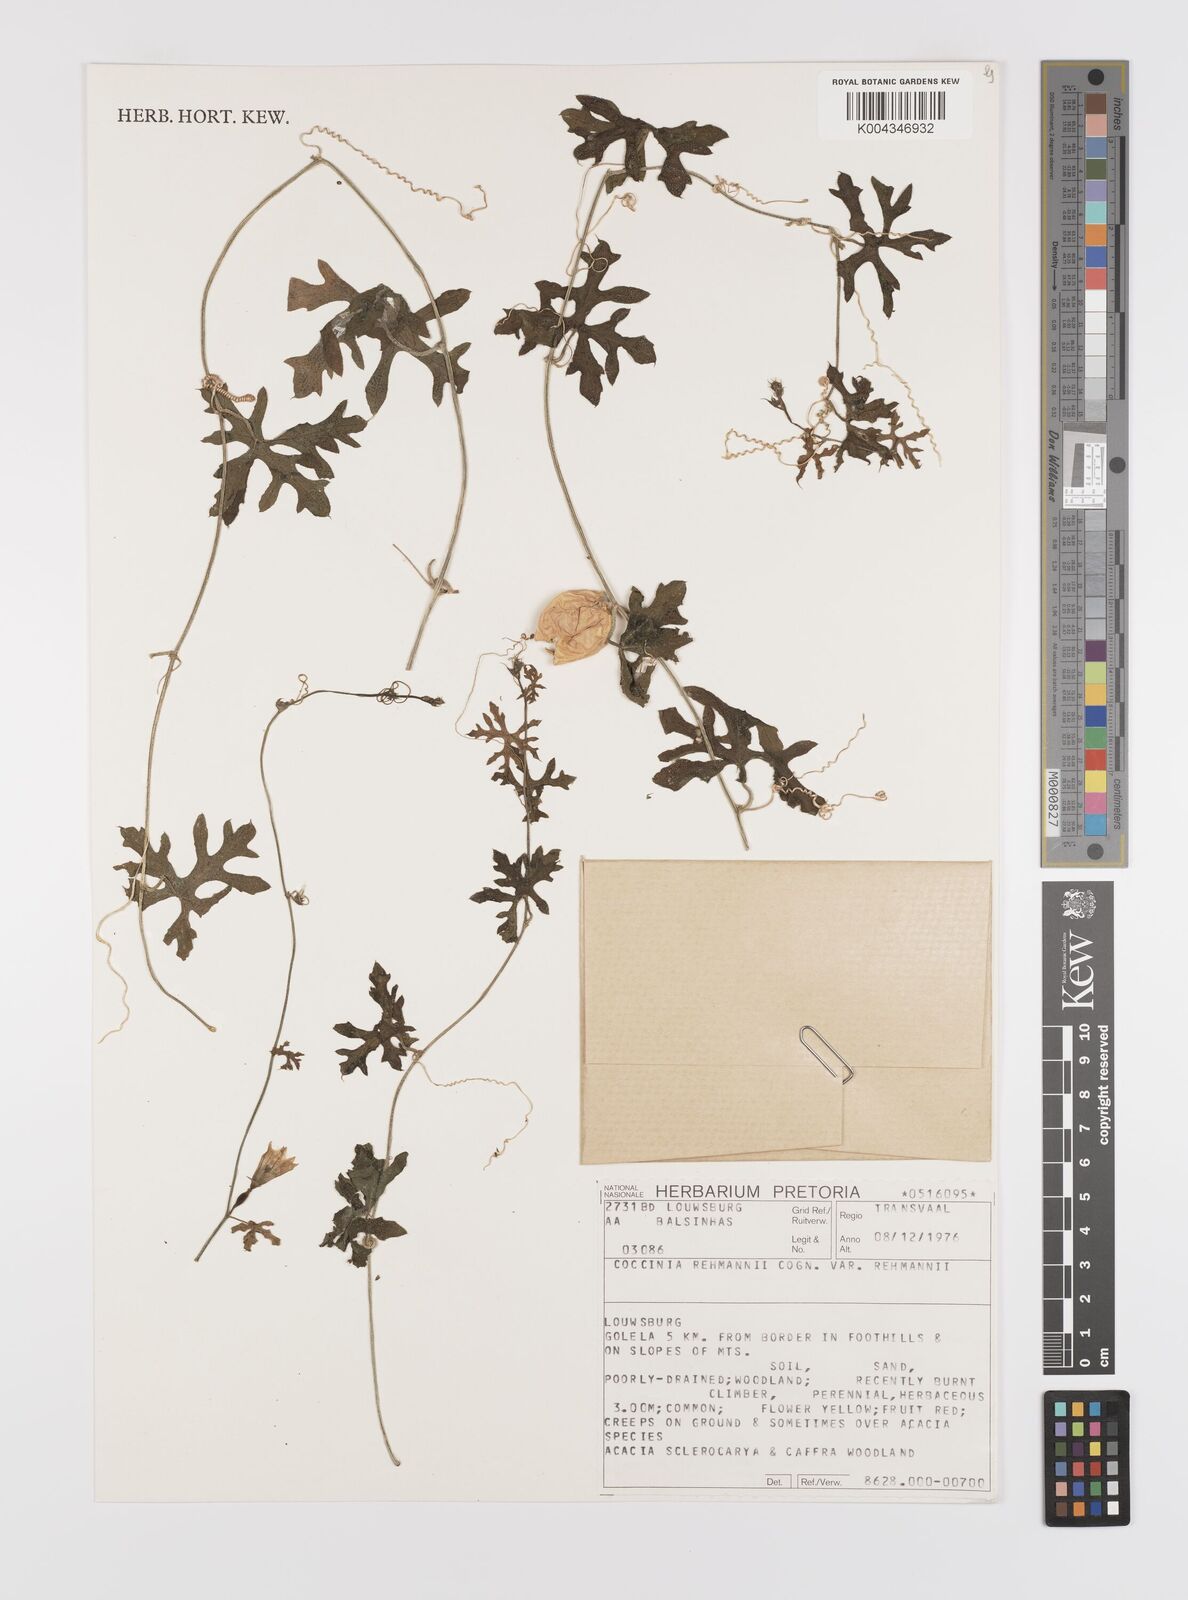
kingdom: Plantae
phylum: Tracheophyta
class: Magnoliopsida
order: Cucurbitales
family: Cucurbitaceae
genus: Coccinia
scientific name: Coccinia rehmannii
